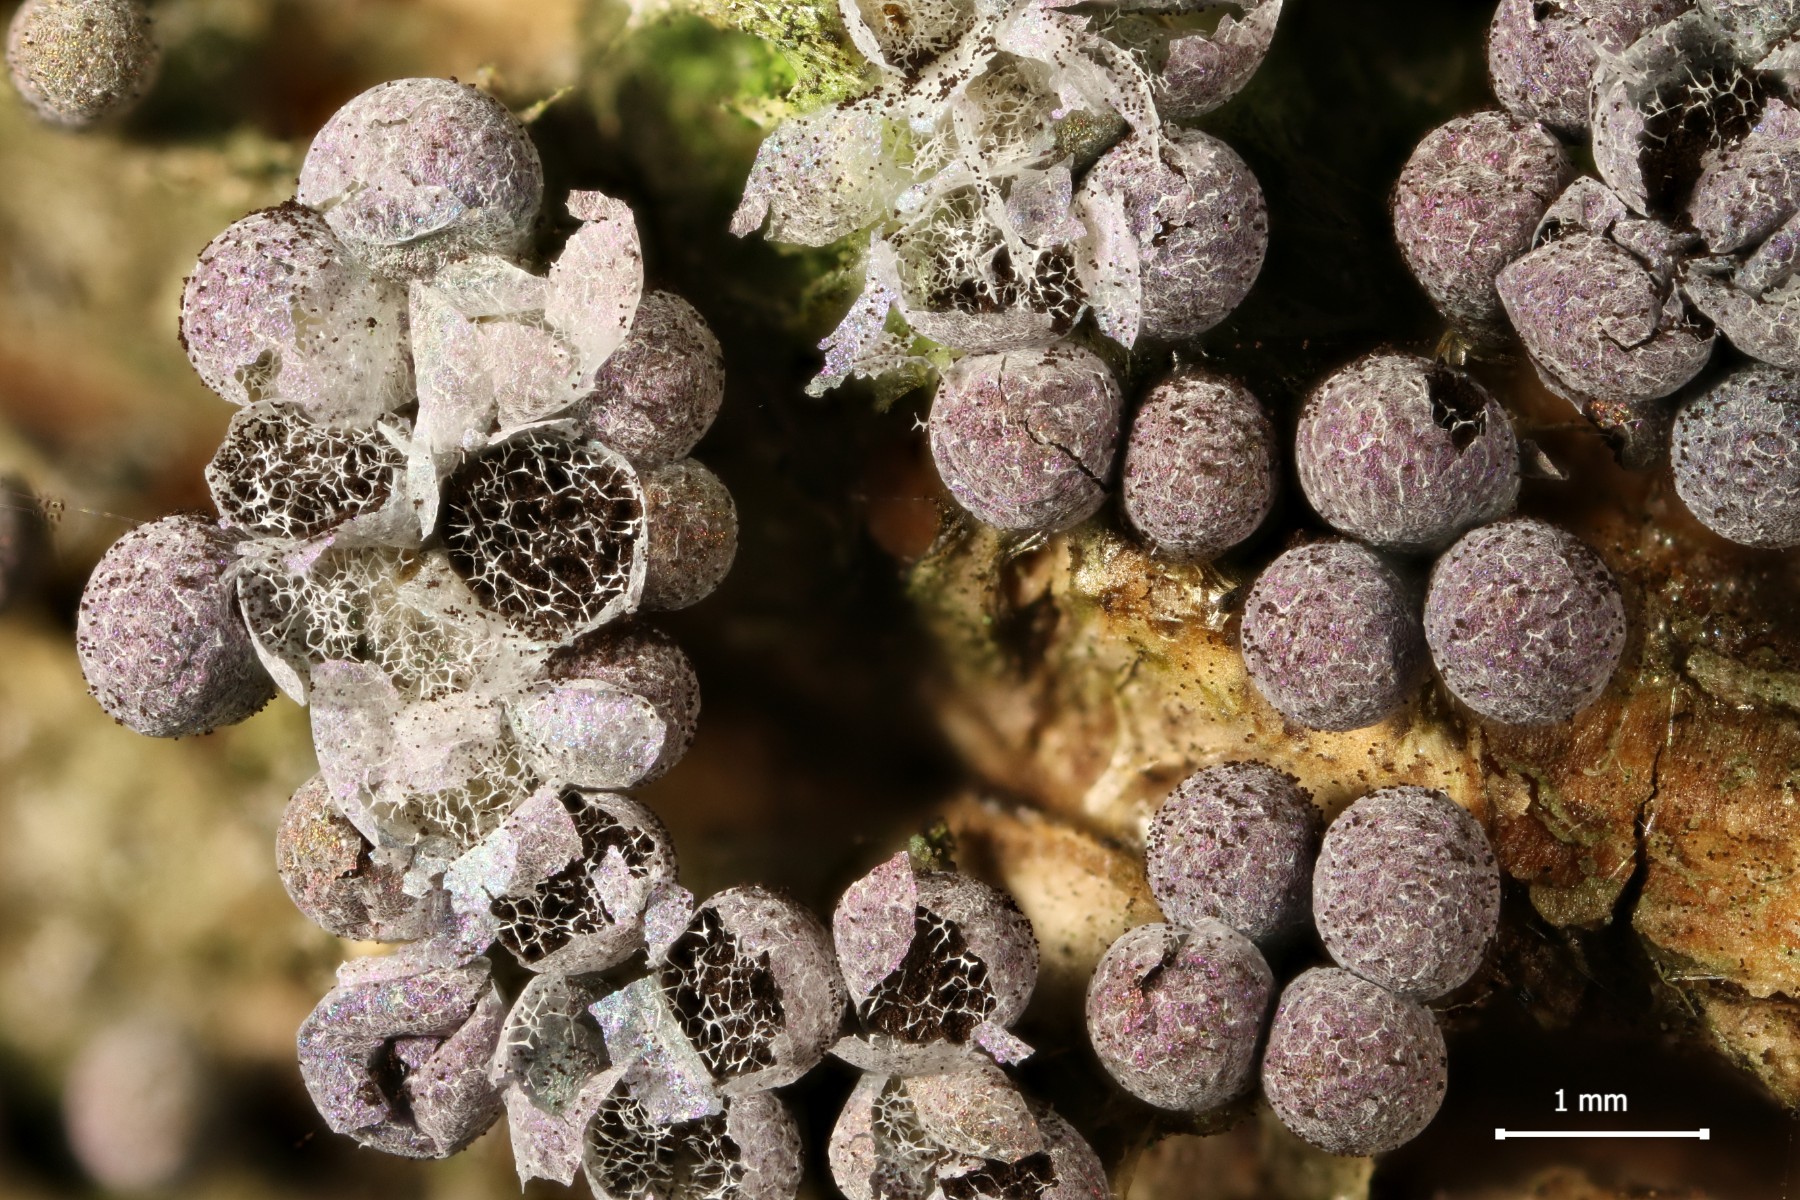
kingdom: Protozoa
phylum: Mycetozoa
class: Myxomycetes
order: Physarales
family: Physaraceae
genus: Badhamia
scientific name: Badhamia utricularis
